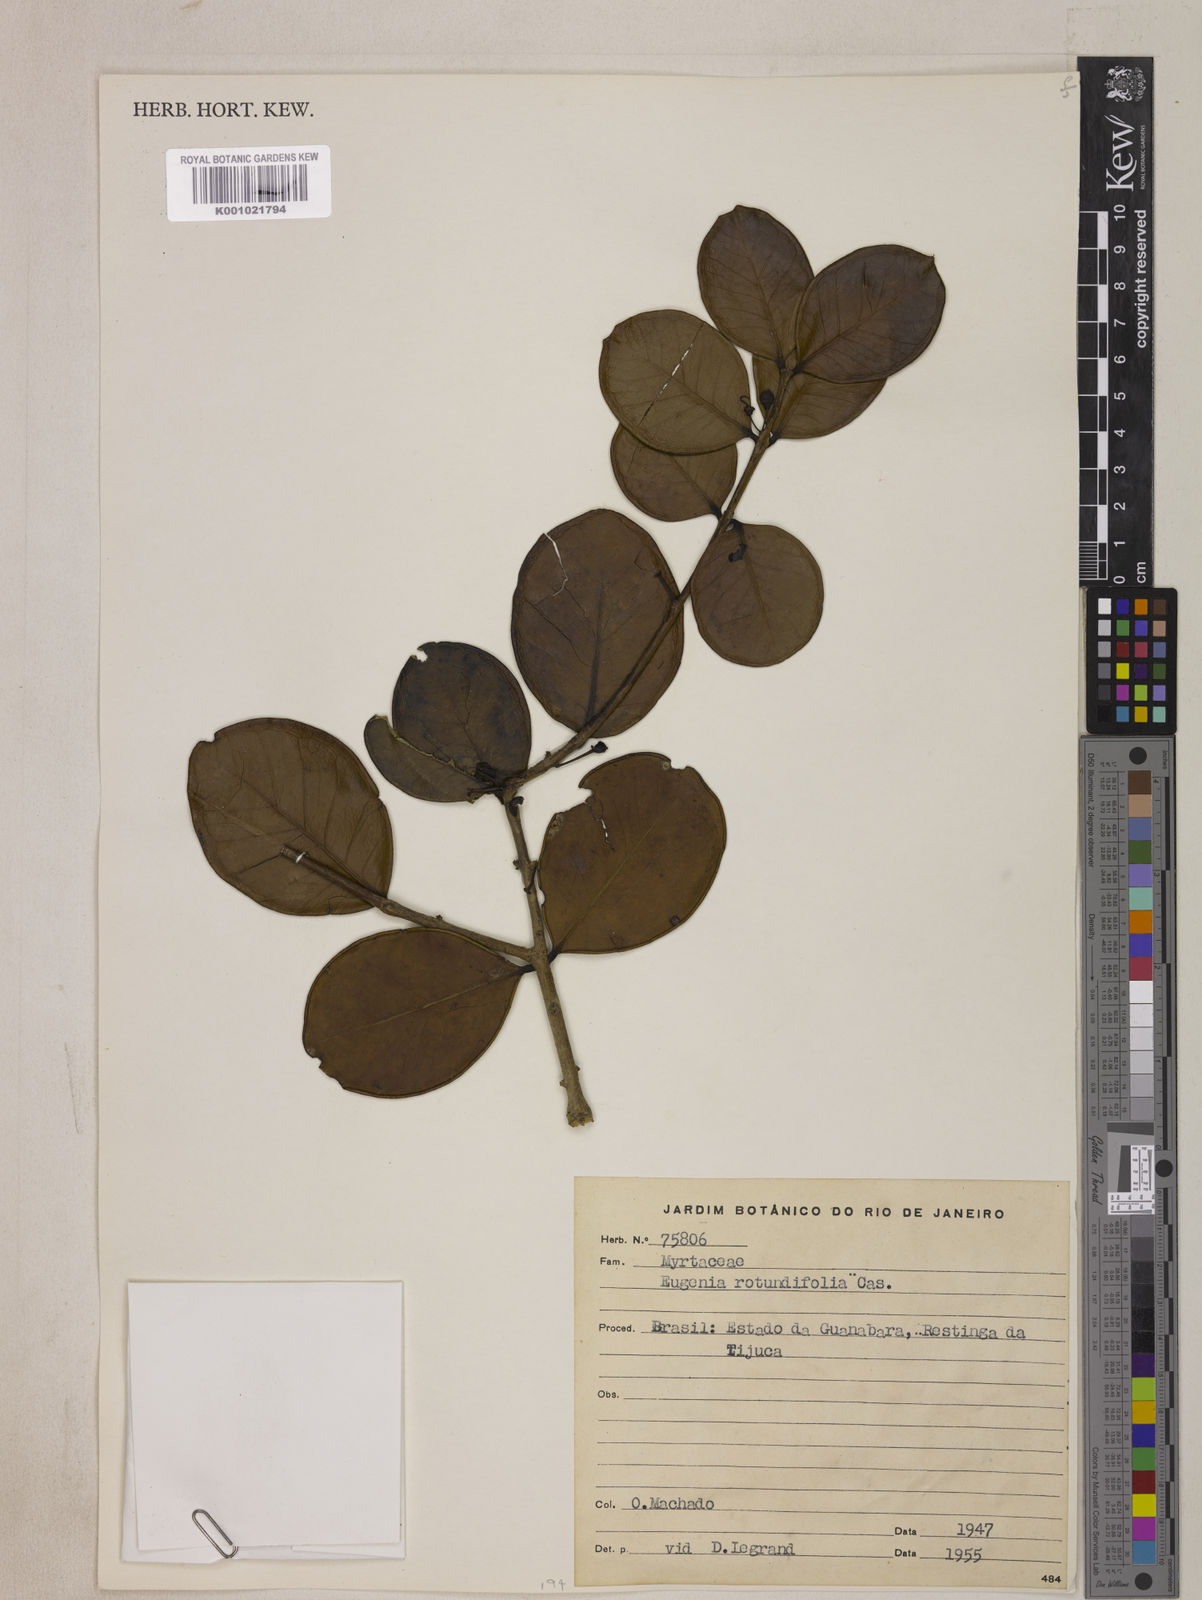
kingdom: Plantae
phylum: Tracheophyta
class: Magnoliopsida
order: Myrtales
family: Myrtaceae
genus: Eugenia
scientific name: Eugenia casarettoana
